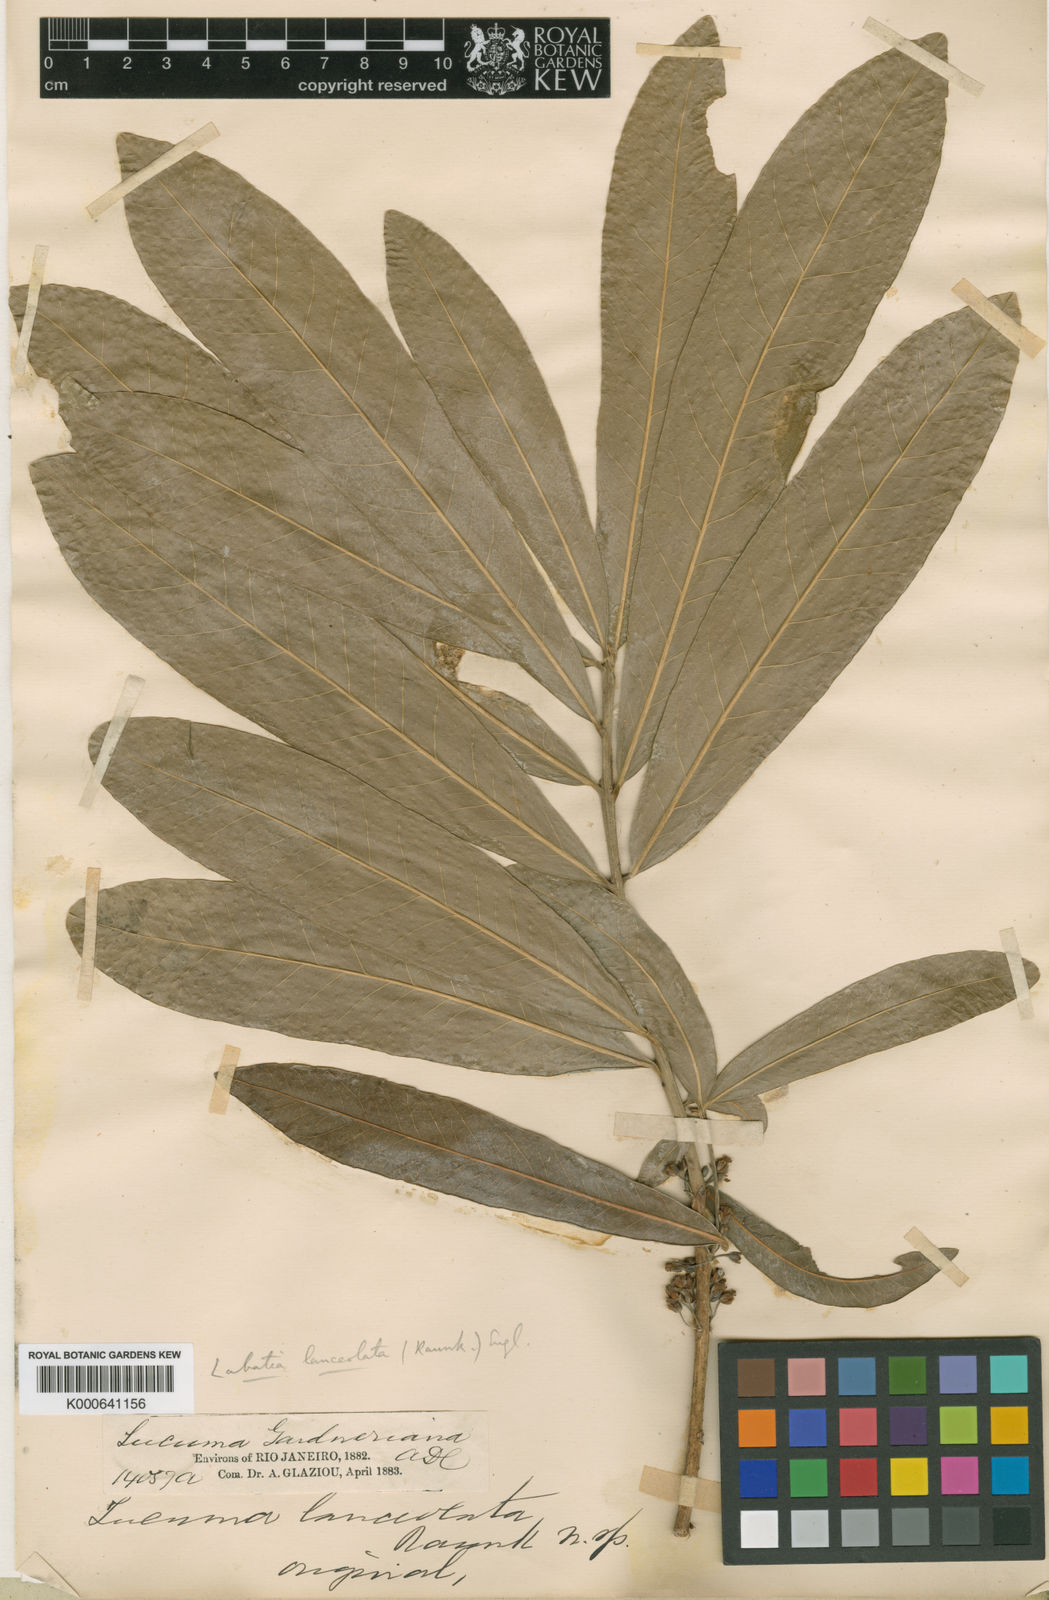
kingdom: Plantae
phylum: Tracheophyta
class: Magnoliopsida
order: Ericales
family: Sapotaceae
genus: Pouteria
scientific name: Pouteria gardneriana
